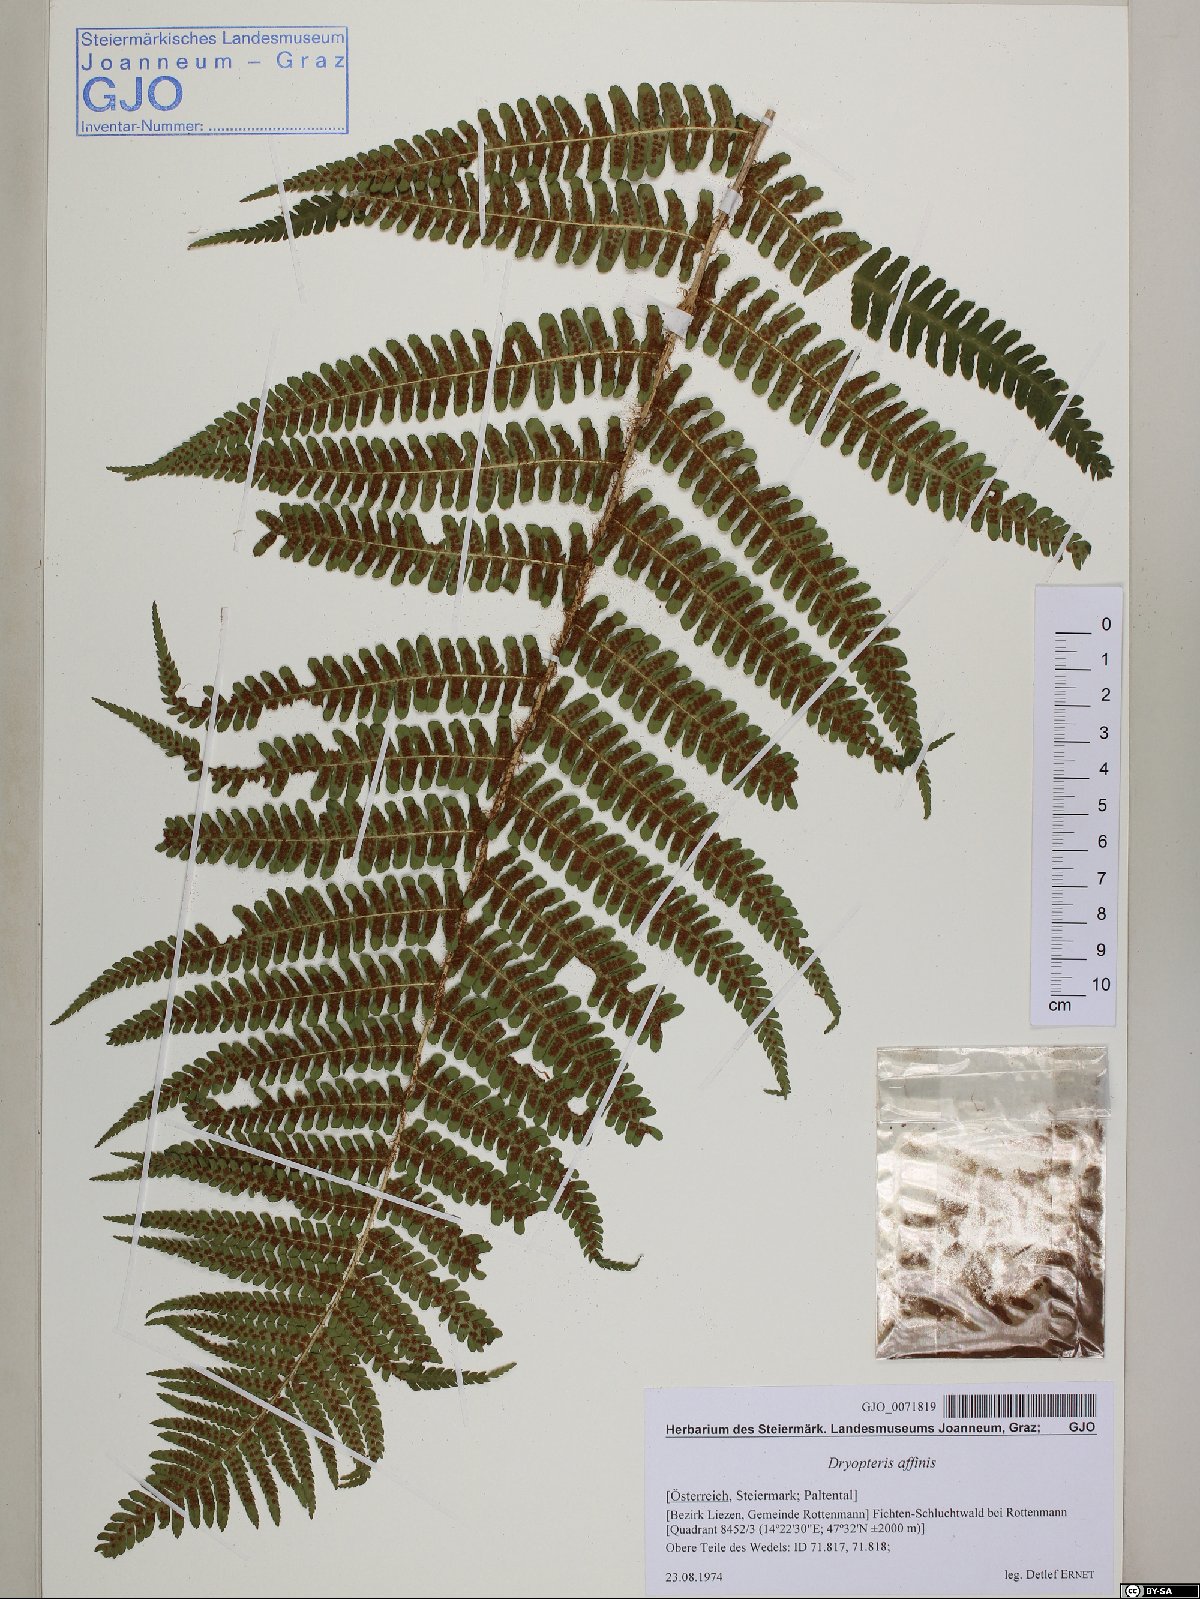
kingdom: Plantae
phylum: Tracheophyta
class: Polypodiopsida
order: Polypodiales
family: Dryopteridaceae
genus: Dryopteris
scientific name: Dryopteris affinis
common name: Scaly male fern
